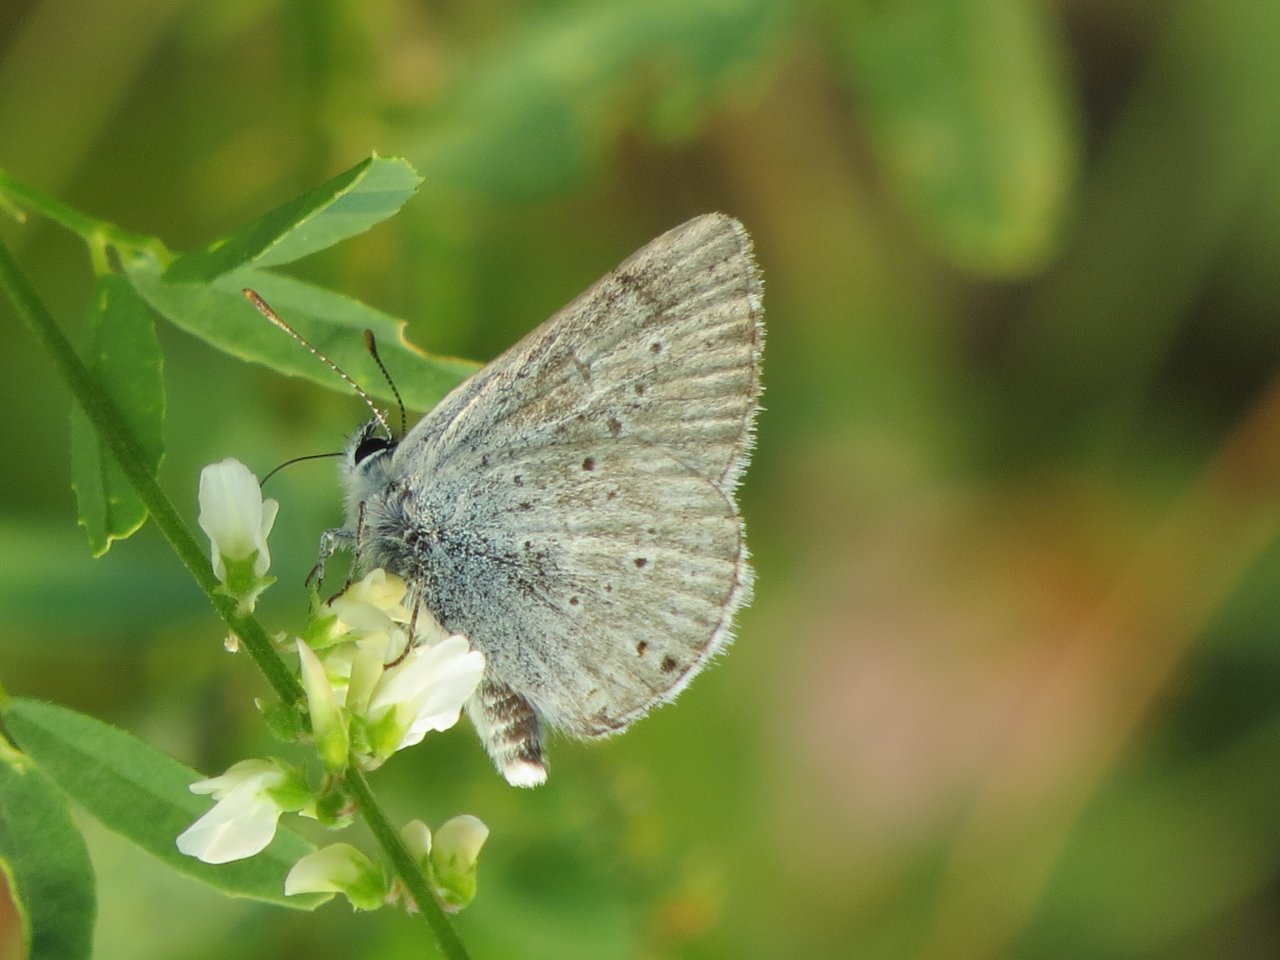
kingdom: Animalia
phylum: Arthropoda
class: Insecta
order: Lepidoptera
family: Lycaenidae
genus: Plebejus
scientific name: Plebejus saepiolus
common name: Greenish Blue
